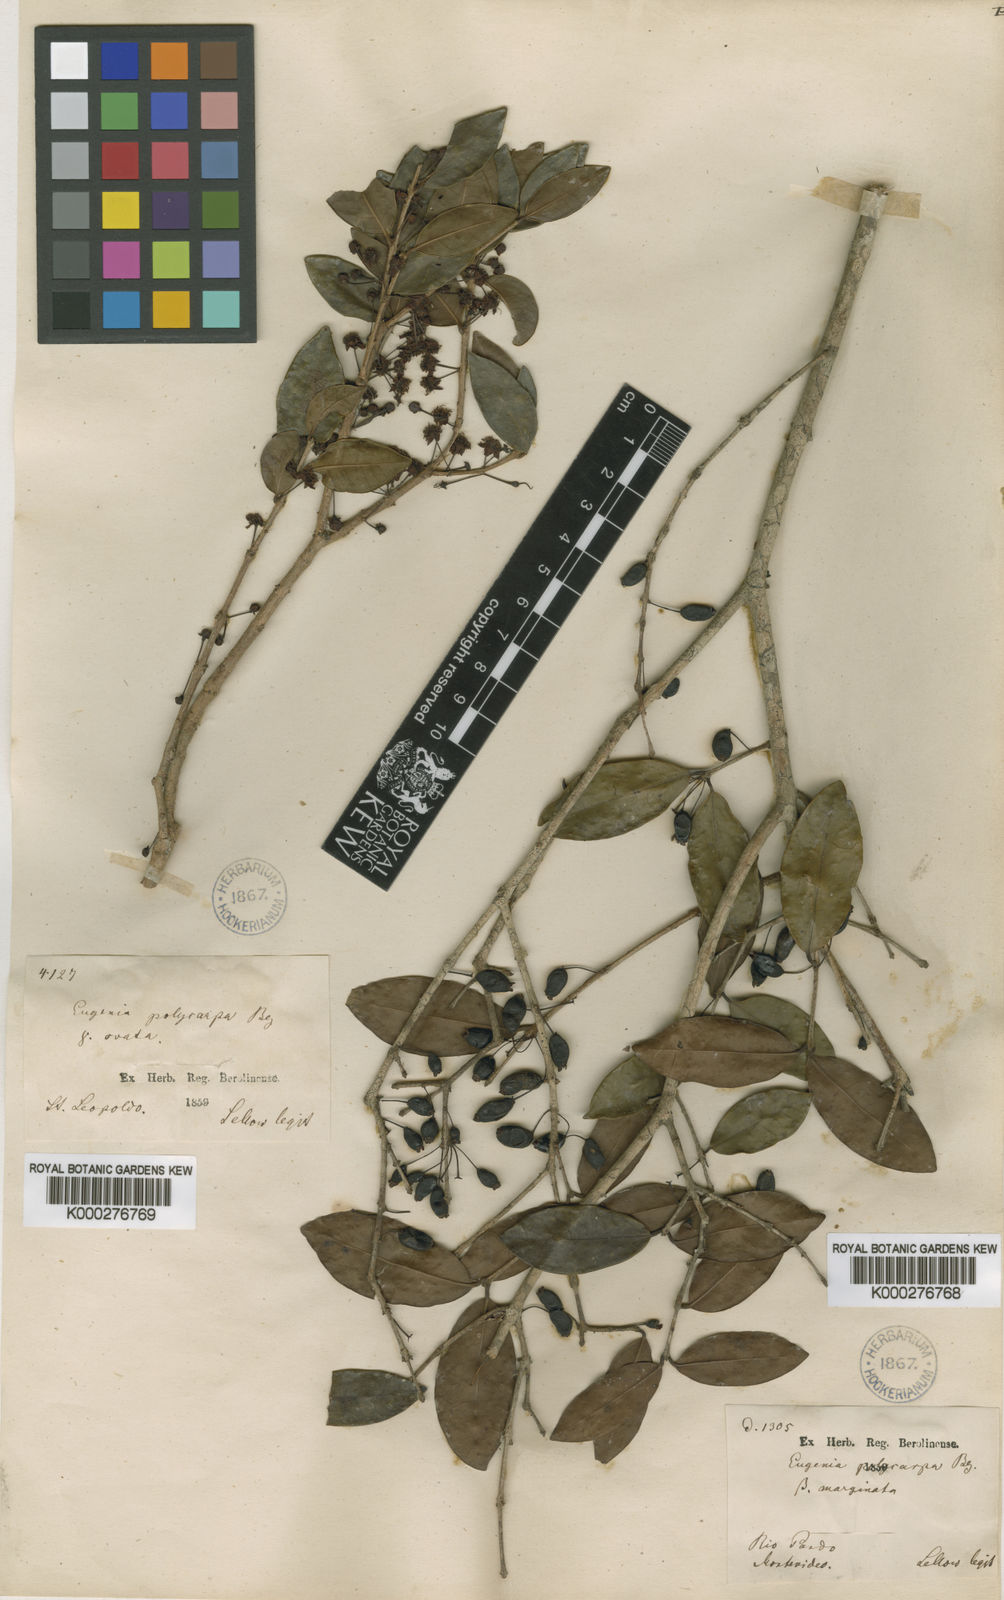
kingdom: Plantae
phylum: Tracheophyta
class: Magnoliopsida
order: Myrtales
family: Myrtaceae
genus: Eugenia
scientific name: Eugenia hiemalis
